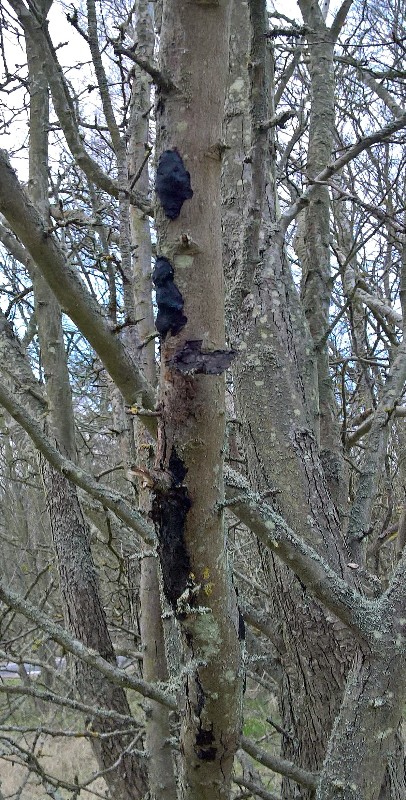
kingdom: Fungi
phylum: Basidiomycota
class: Agaricomycetes
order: Auriculariales
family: Auriculariaceae
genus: Exidia
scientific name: Exidia nigricans
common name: almindelig bævretop
